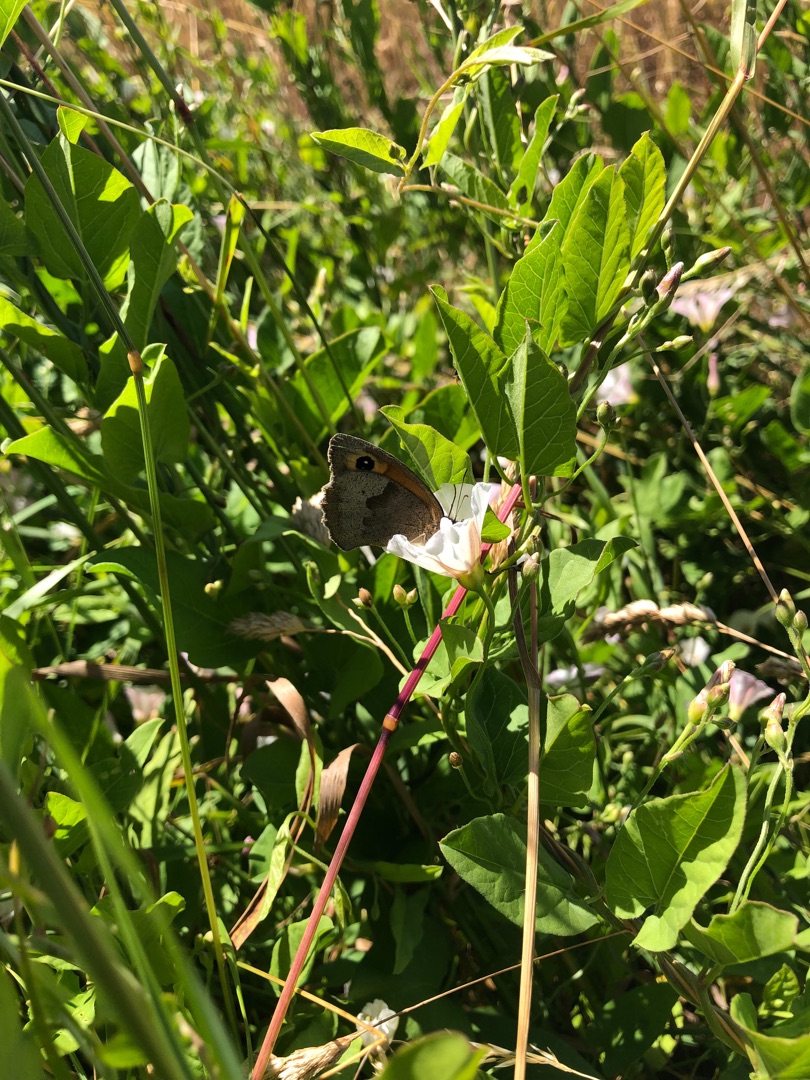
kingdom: Animalia
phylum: Arthropoda
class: Insecta
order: Lepidoptera
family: Nymphalidae
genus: Maniola
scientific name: Maniola jurtina
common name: Græsrandøje
